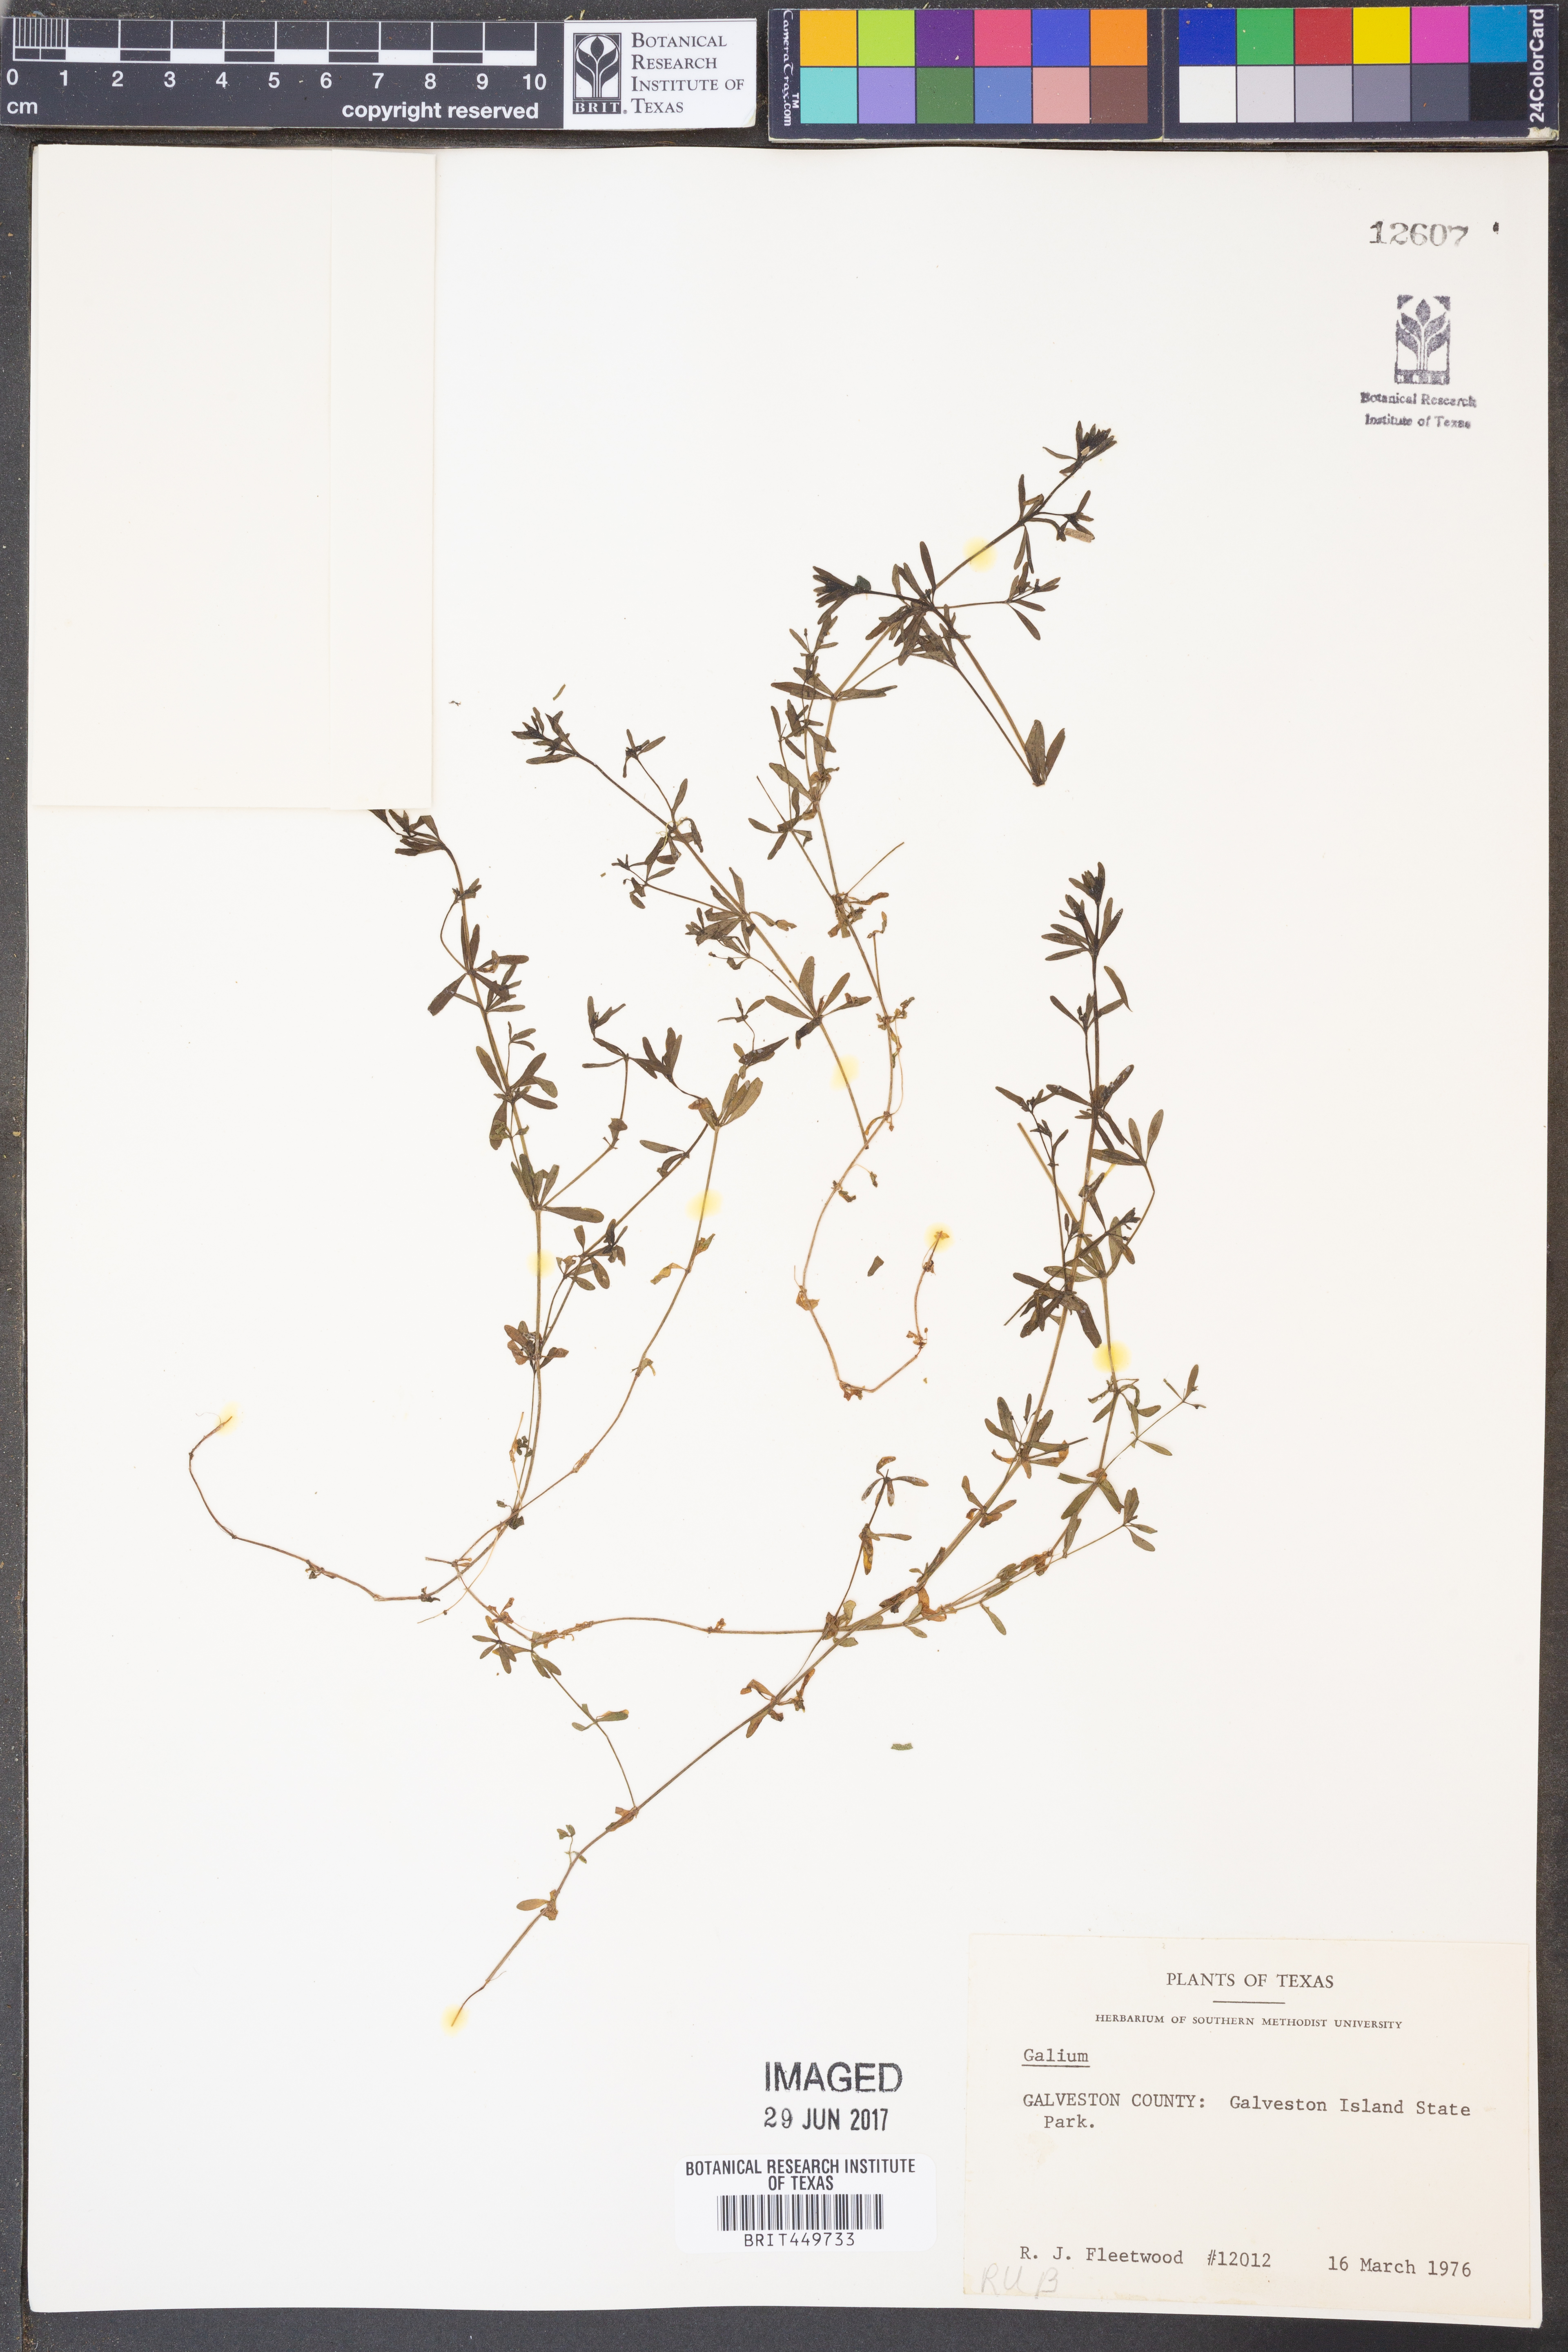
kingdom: Plantae
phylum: Tracheophyta
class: Magnoliopsida
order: Gentianales
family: Rubiaceae
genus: Galium
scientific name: Galium
